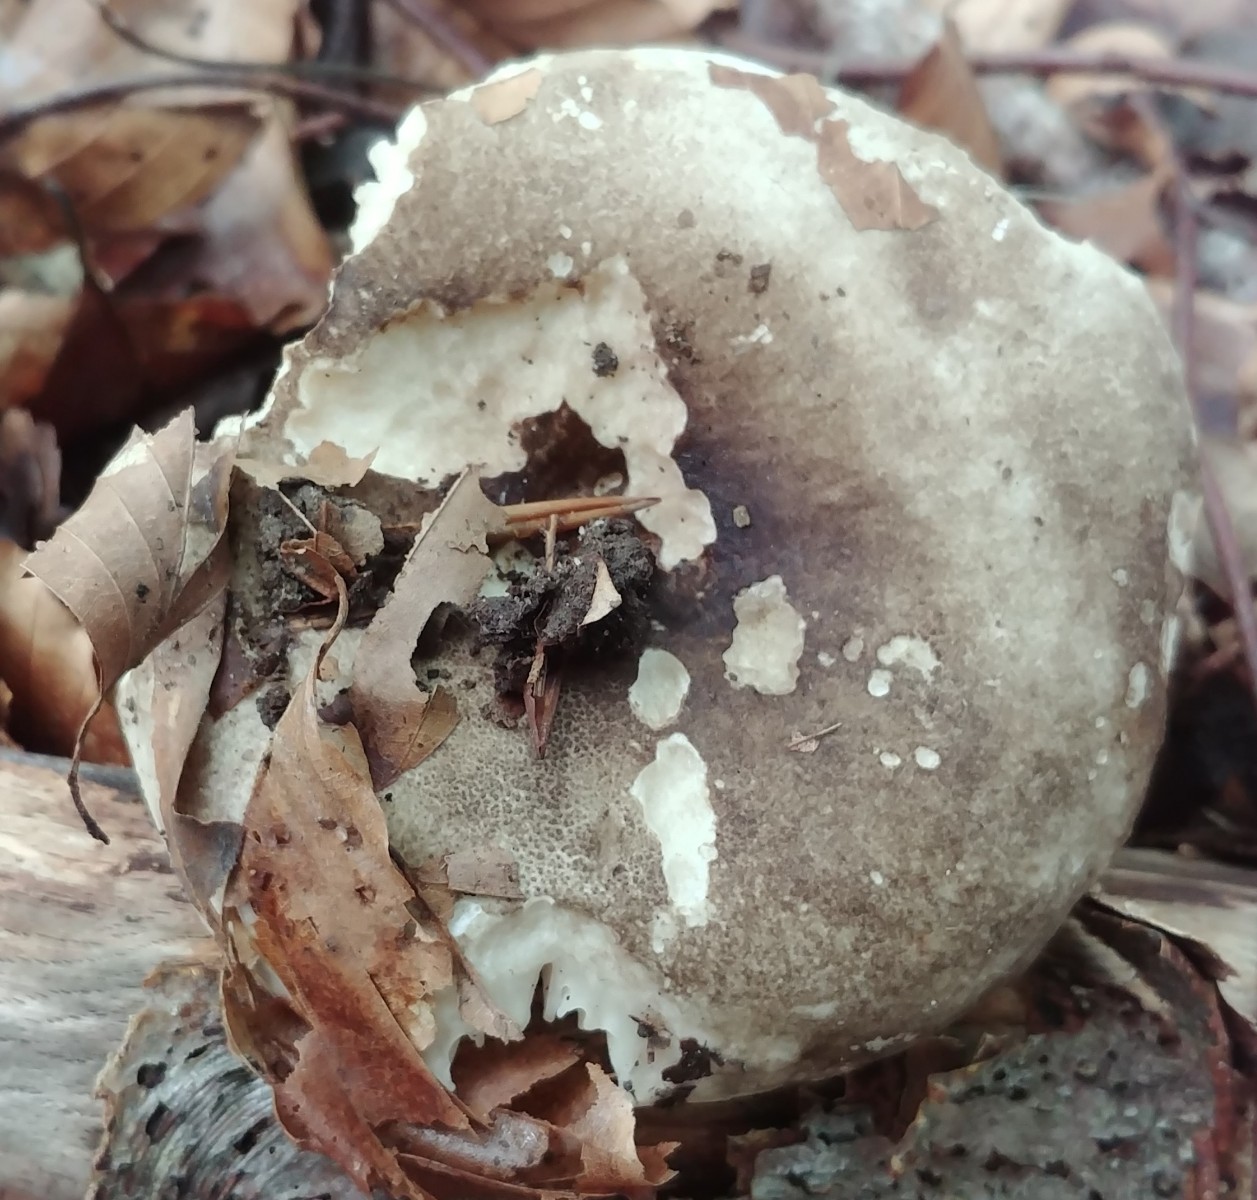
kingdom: Fungi
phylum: Basidiomycota
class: Agaricomycetes
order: Russulales
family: Russulaceae
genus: Russula
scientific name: Russula adusta
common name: sværtende skørhat
